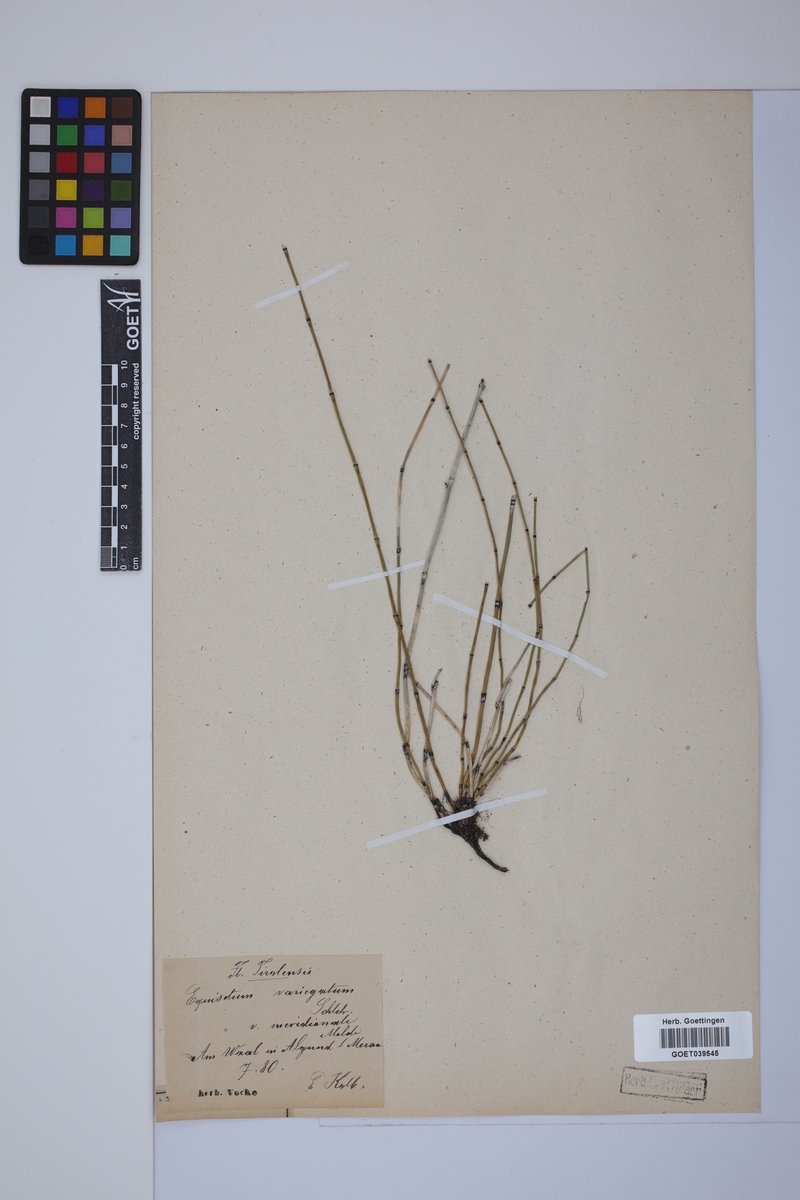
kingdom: Plantae
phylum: Tracheophyta
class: Polypodiopsida
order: Equisetales
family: Equisetaceae
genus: Equisetum
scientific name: Equisetum variegatum
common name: Variegated horsetail
